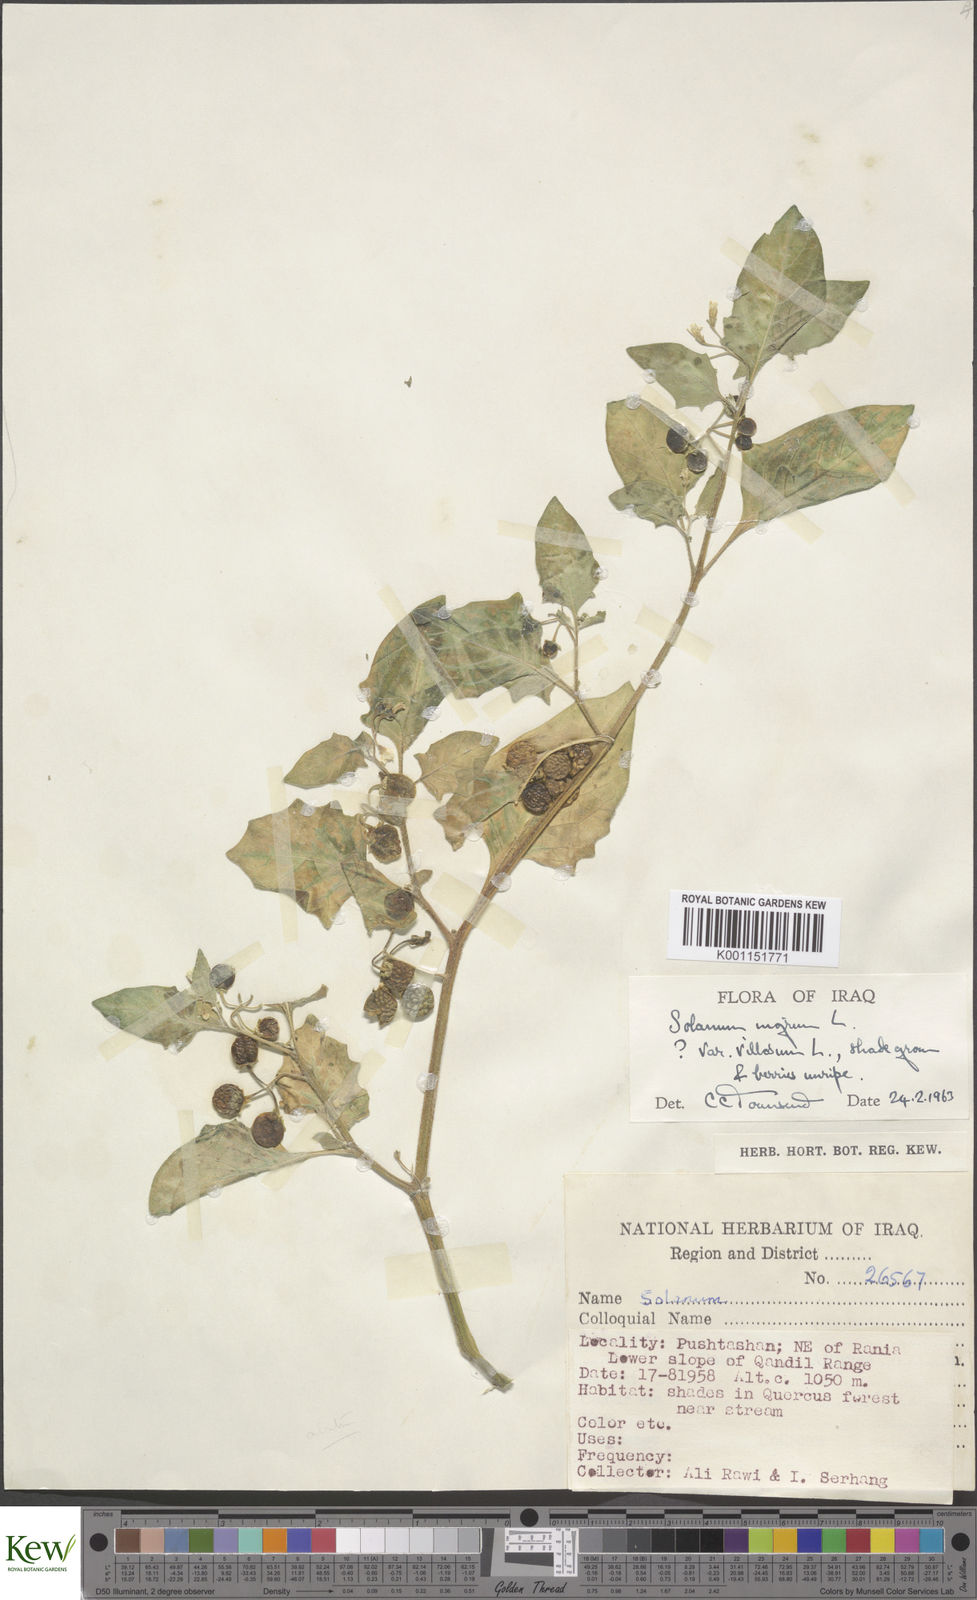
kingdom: Plantae
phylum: Tracheophyta
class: Magnoliopsida
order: Solanales
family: Solanaceae
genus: Solanum
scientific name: Solanum villosum
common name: Red nightshade
